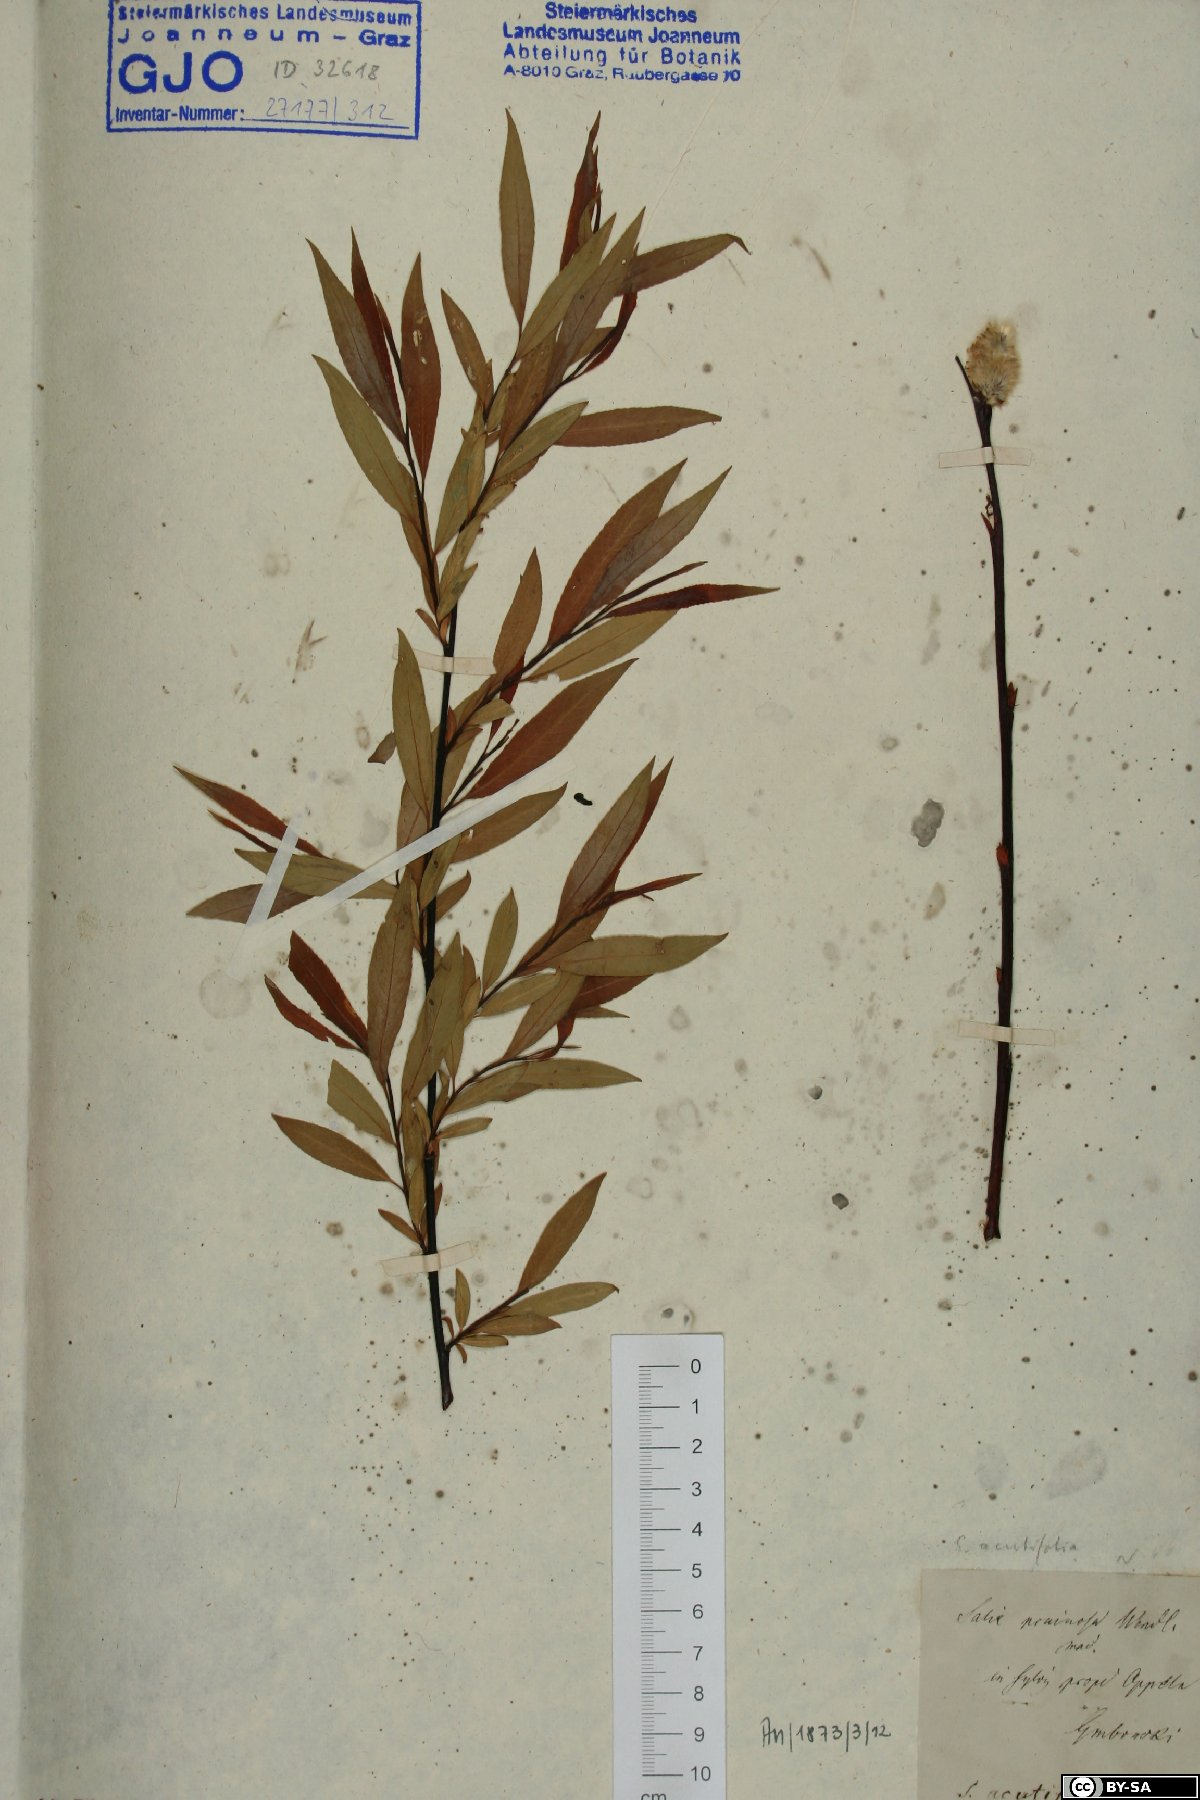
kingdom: Plantae
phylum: Tracheophyta
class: Magnoliopsida
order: Malpighiales
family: Salicaceae
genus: Salix
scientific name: Salix acutifolia
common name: Siberian violet-willow
